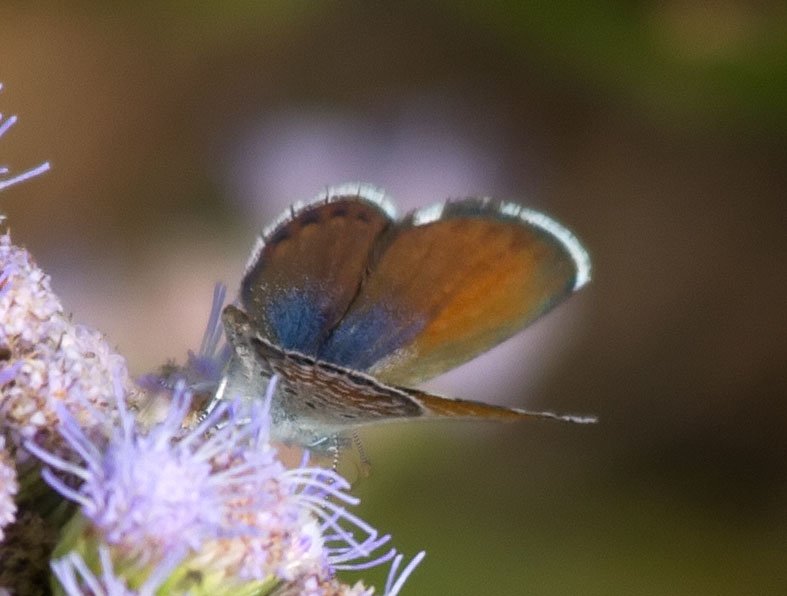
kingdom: Animalia
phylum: Arthropoda
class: Insecta
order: Lepidoptera
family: Lycaenidae
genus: Brephidium
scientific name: Brephidium exilis
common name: Western Pygmy-Blue
